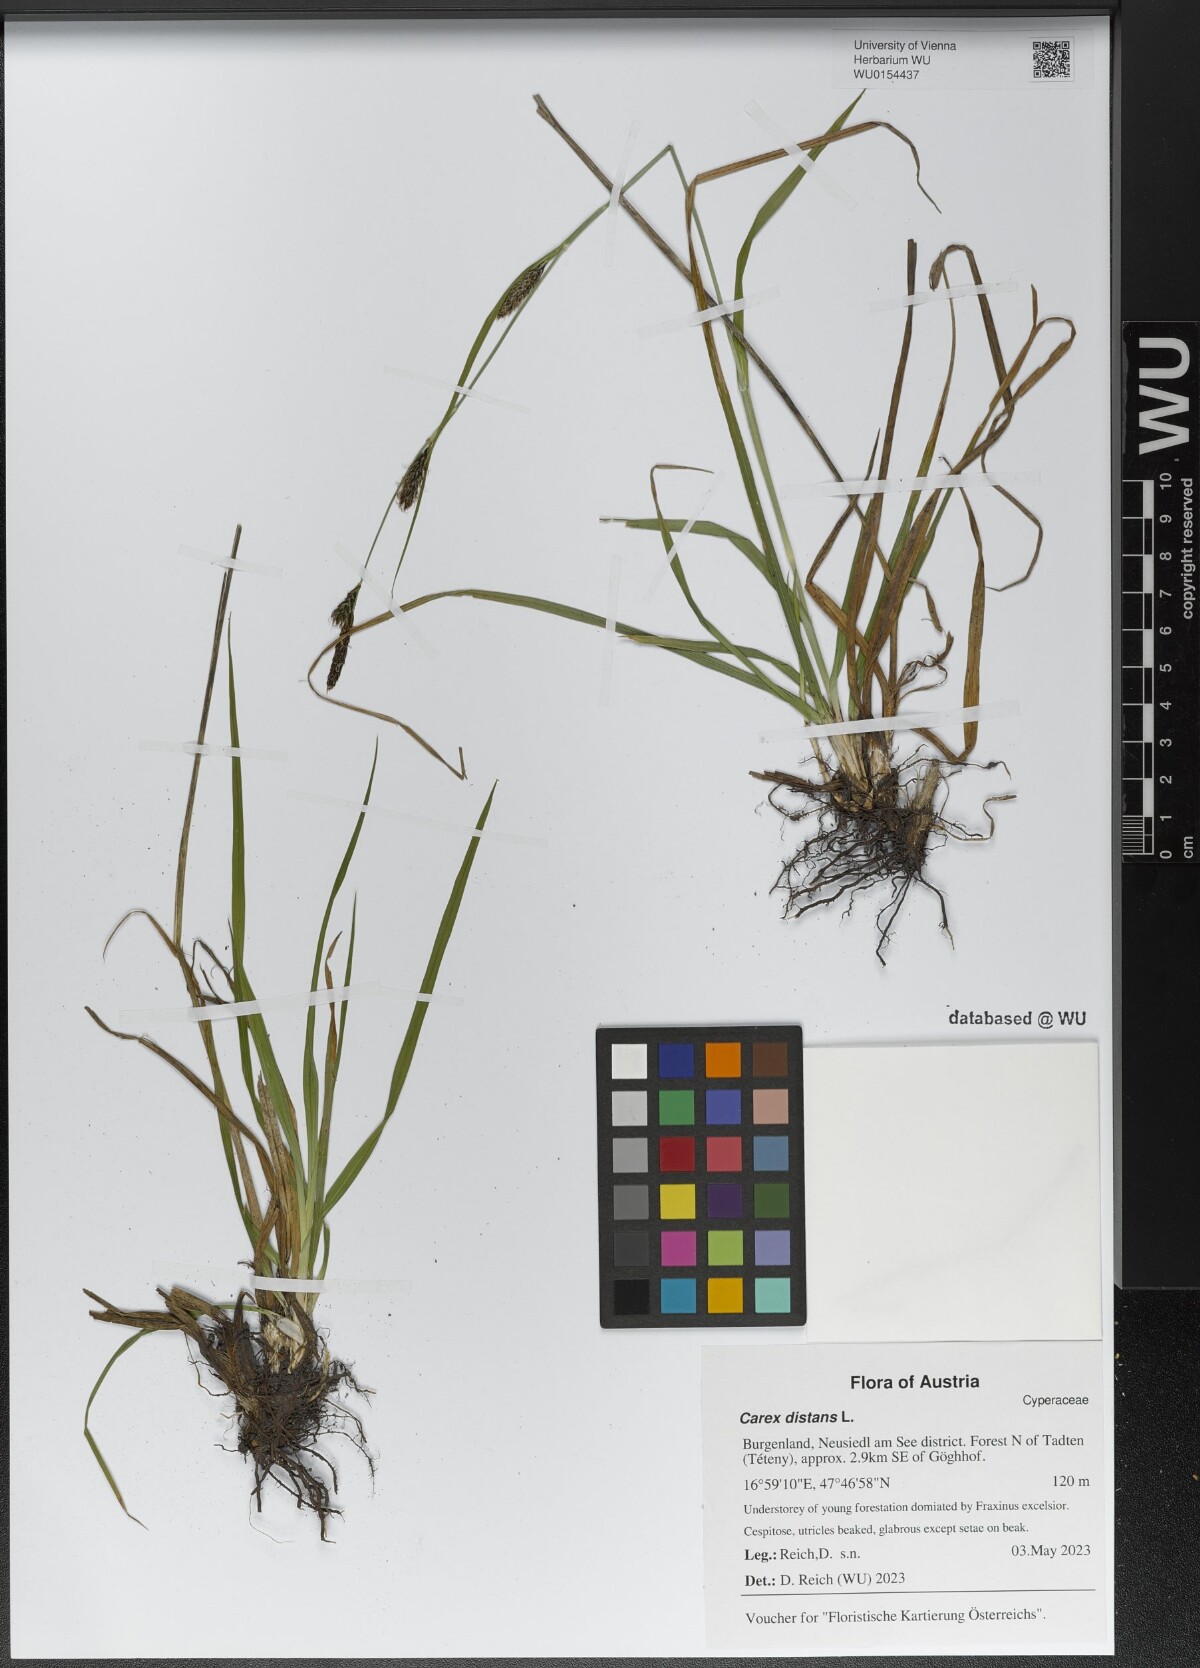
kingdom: Plantae
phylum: Tracheophyta
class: Liliopsida
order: Poales
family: Cyperaceae
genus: Carex
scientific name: Carex distans
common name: Distant sedge
